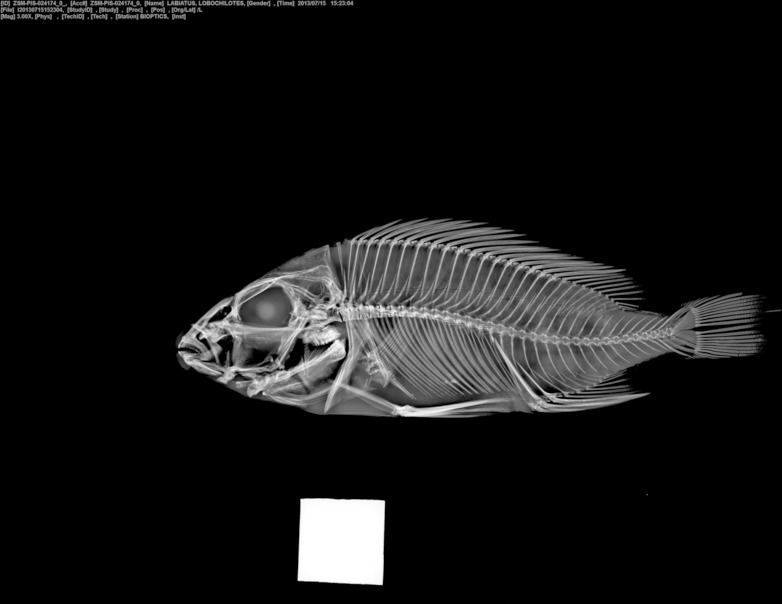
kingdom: Animalia
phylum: Chordata
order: Perciformes
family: Cichlidae
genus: Lobochilotes
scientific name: Lobochilotes labiatus
